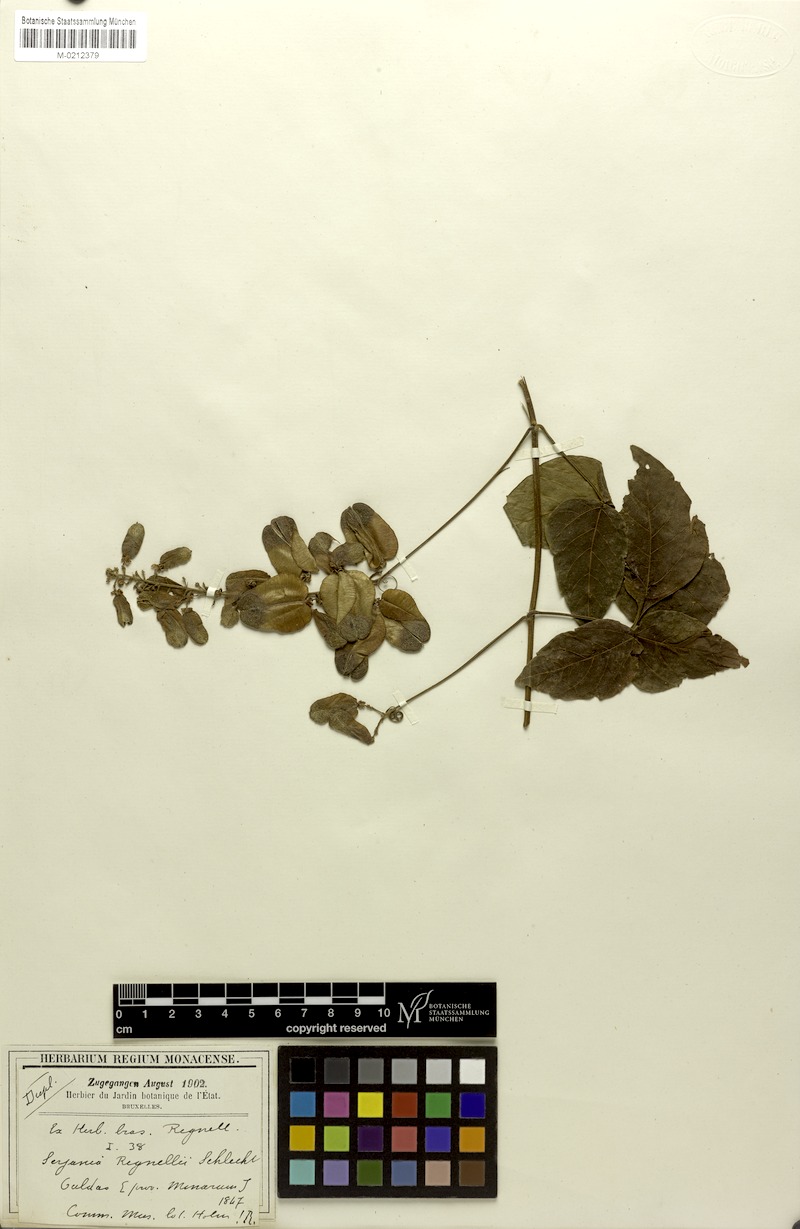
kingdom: Plantae
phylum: Tracheophyta
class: Magnoliopsida
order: Sapindales
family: Sapindaceae
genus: Serjania
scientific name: Serjania regnellii
